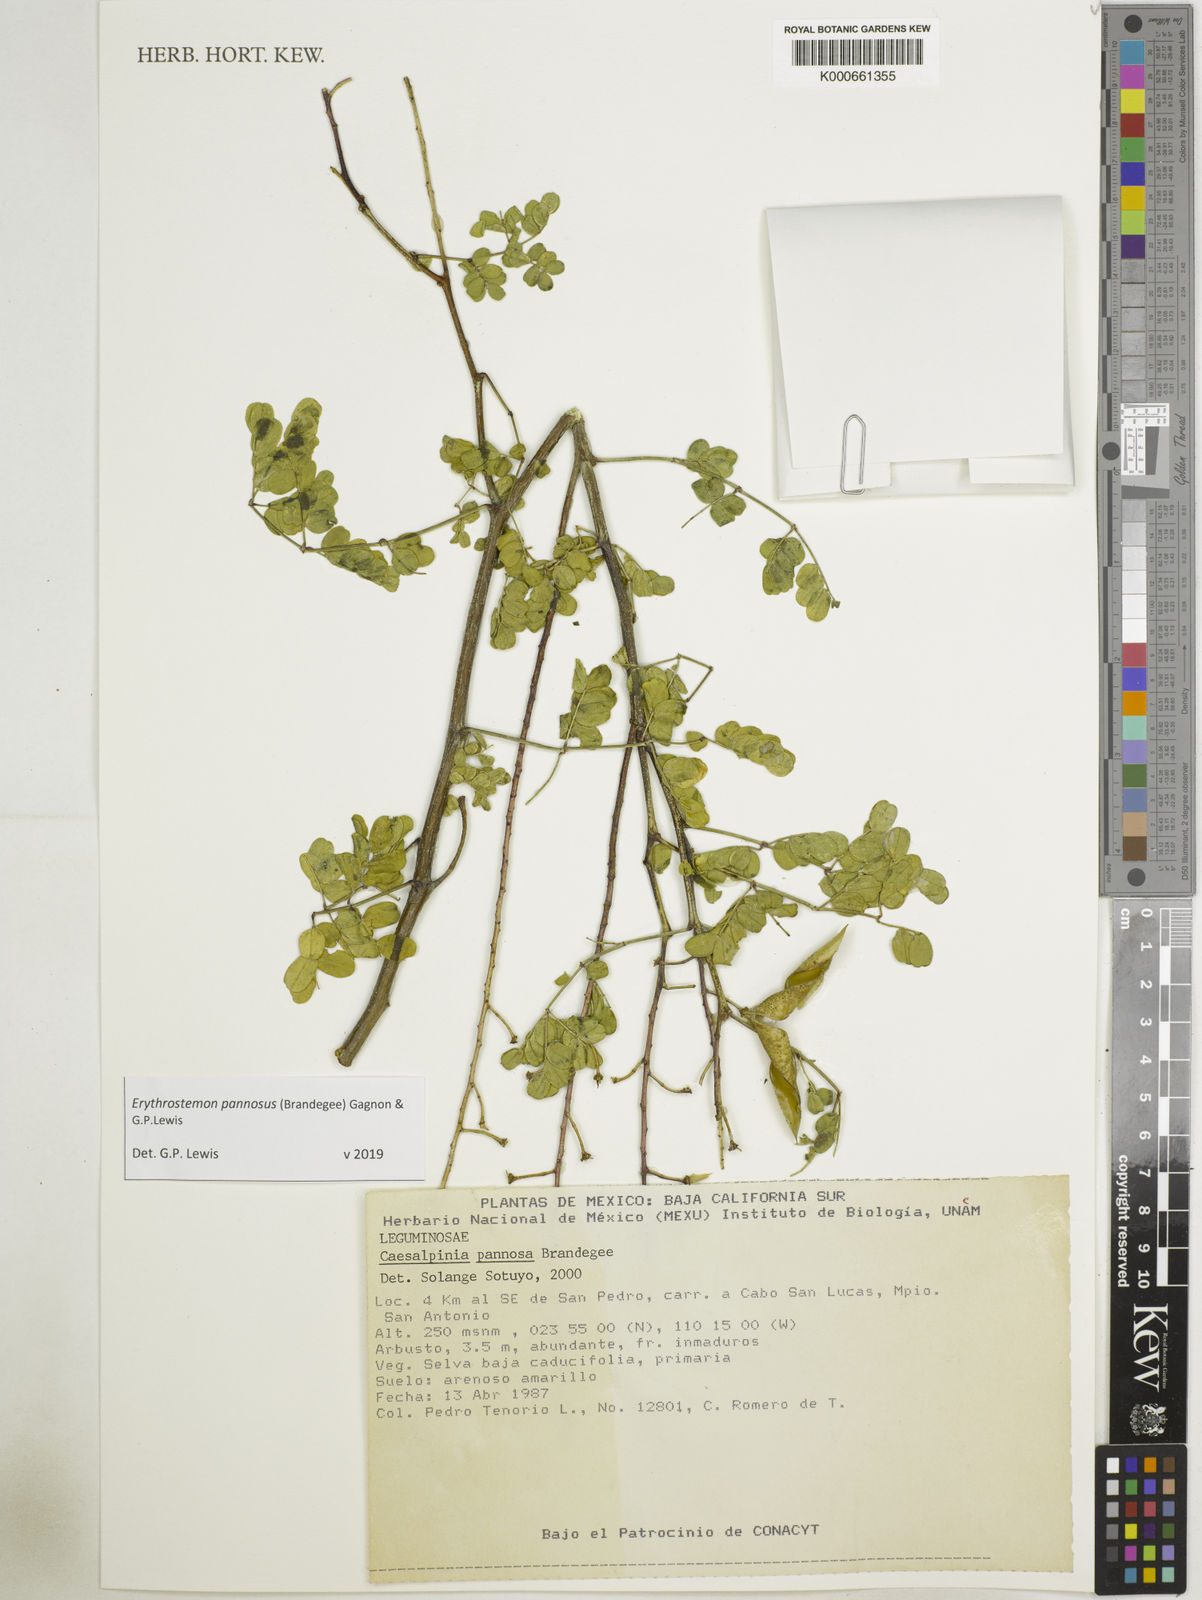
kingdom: Plantae
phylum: Tracheophyta
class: Magnoliopsida
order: Fabales
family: Fabaceae
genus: Erythrostemon
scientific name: Erythrostemon pannosus
